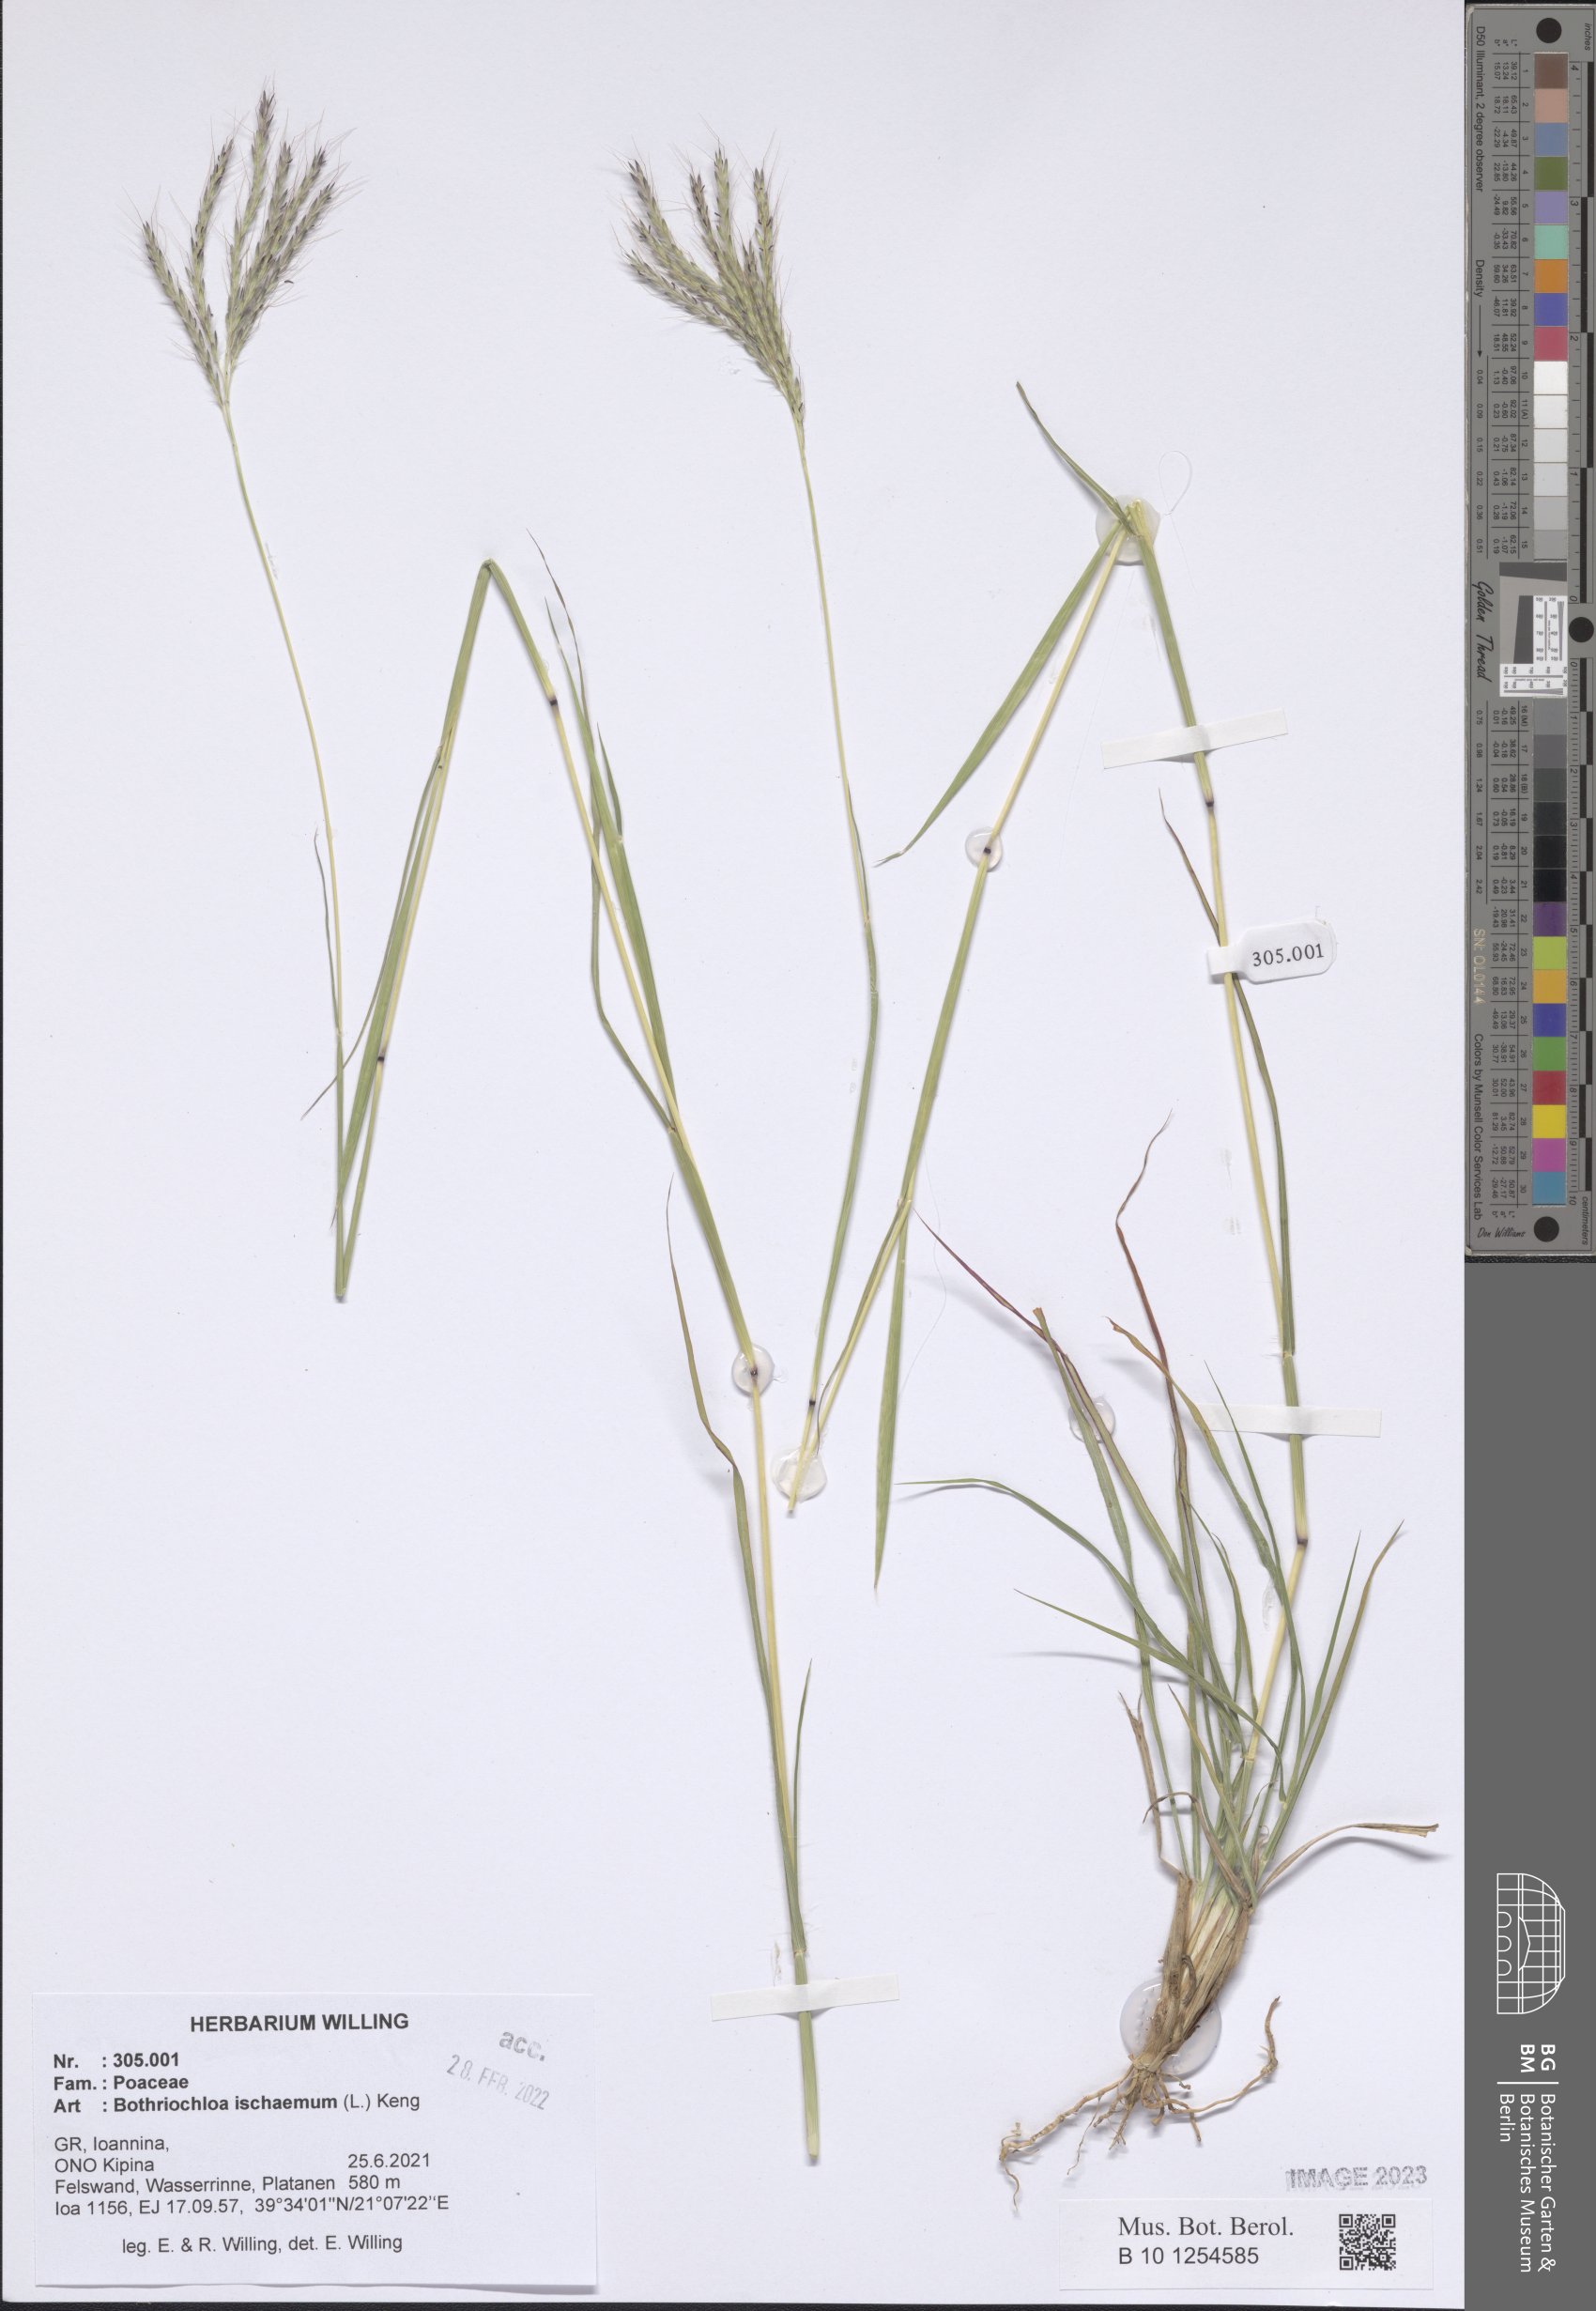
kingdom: Plantae
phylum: Tracheophyta
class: Liliopsida
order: Poales
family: Poaceae
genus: Bothriochloa
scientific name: Bothriochloa ischaemum
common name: Yellow bluestem
